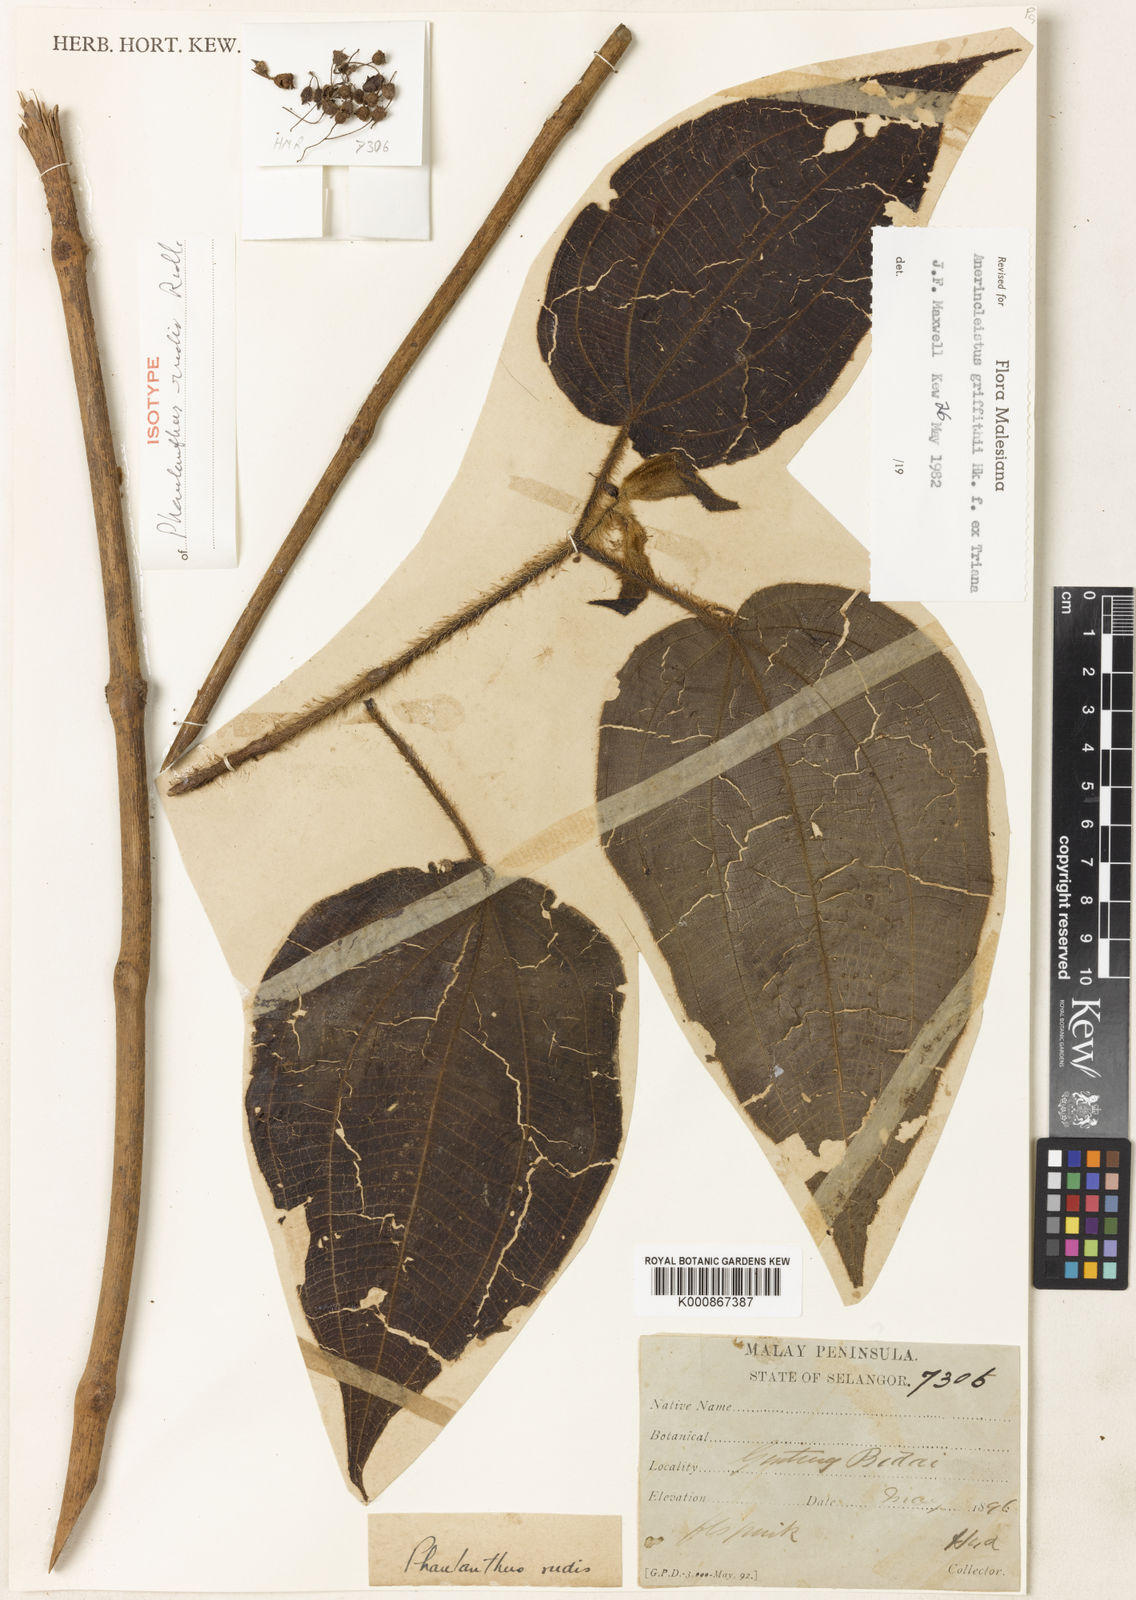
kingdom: Plantae
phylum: Tracheophyta
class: Magnoliopsida
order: Myrtales
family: Melastomataceae
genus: Anerincleistus
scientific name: Anerincleistus griffithii
